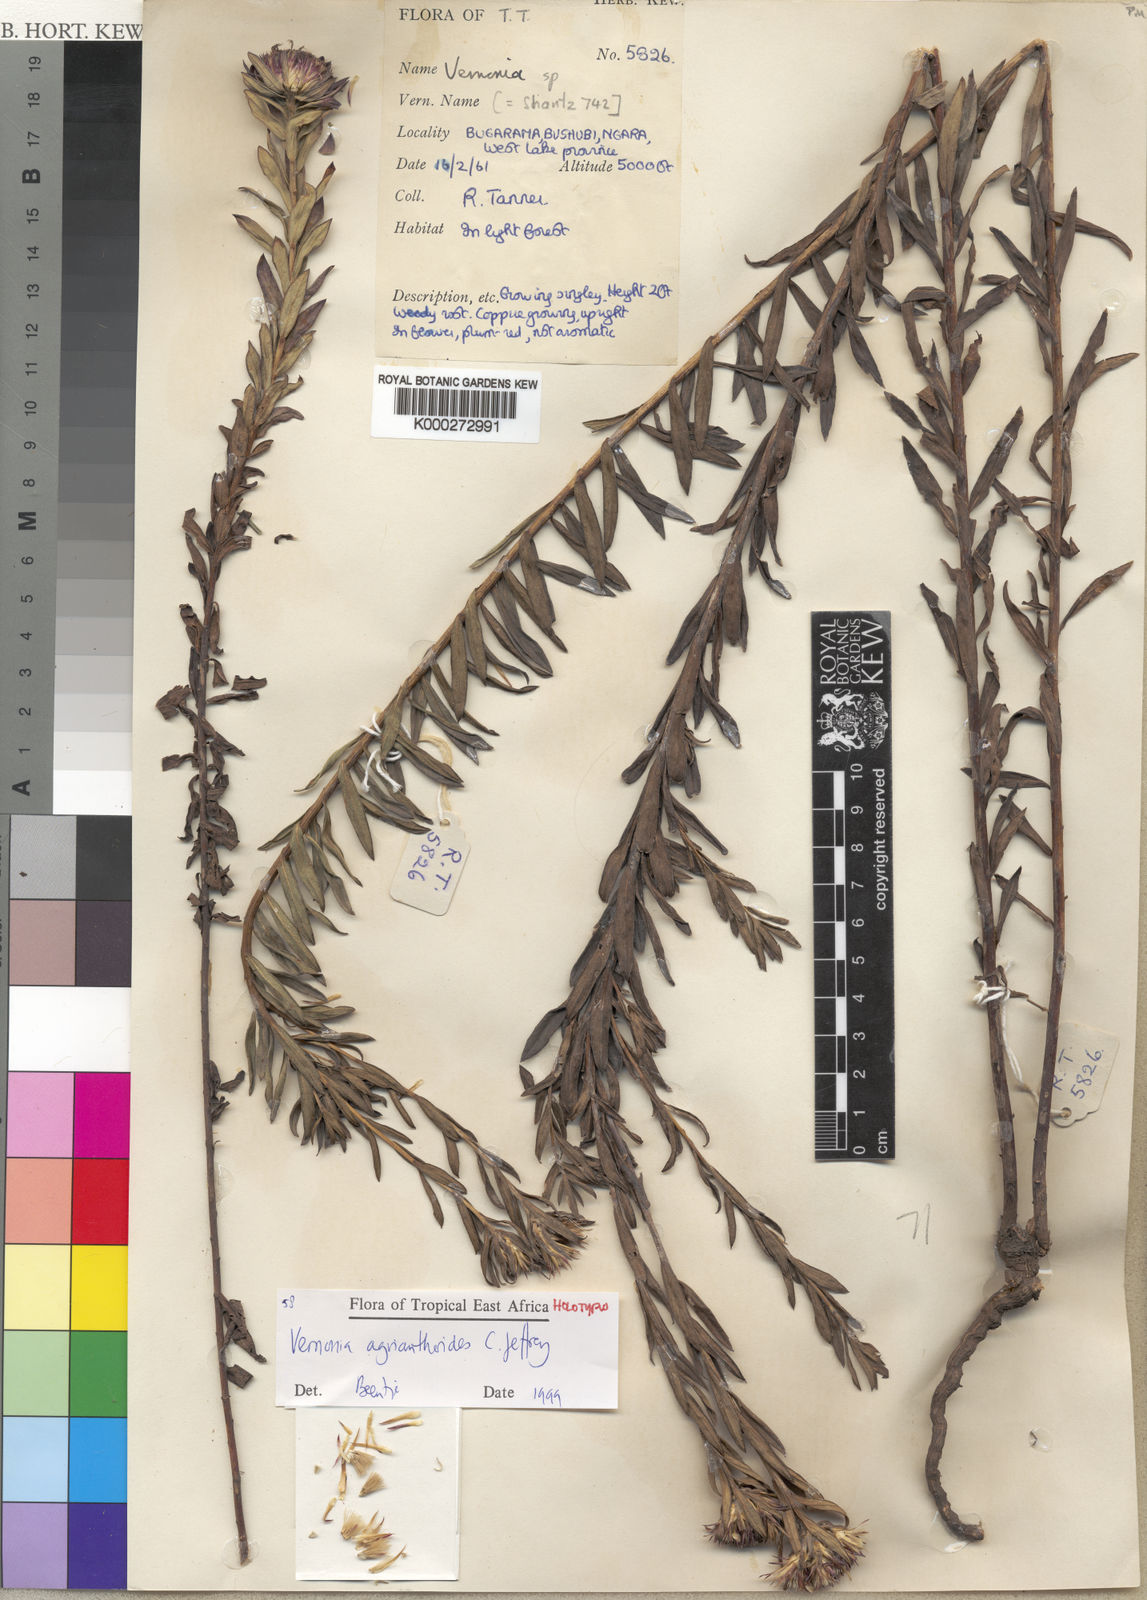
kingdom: Plantae
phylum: Tracheophyta
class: Magnoliopsida
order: Asterales
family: Asteraceae
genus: Oocephala
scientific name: Oocephala agrianthoides
